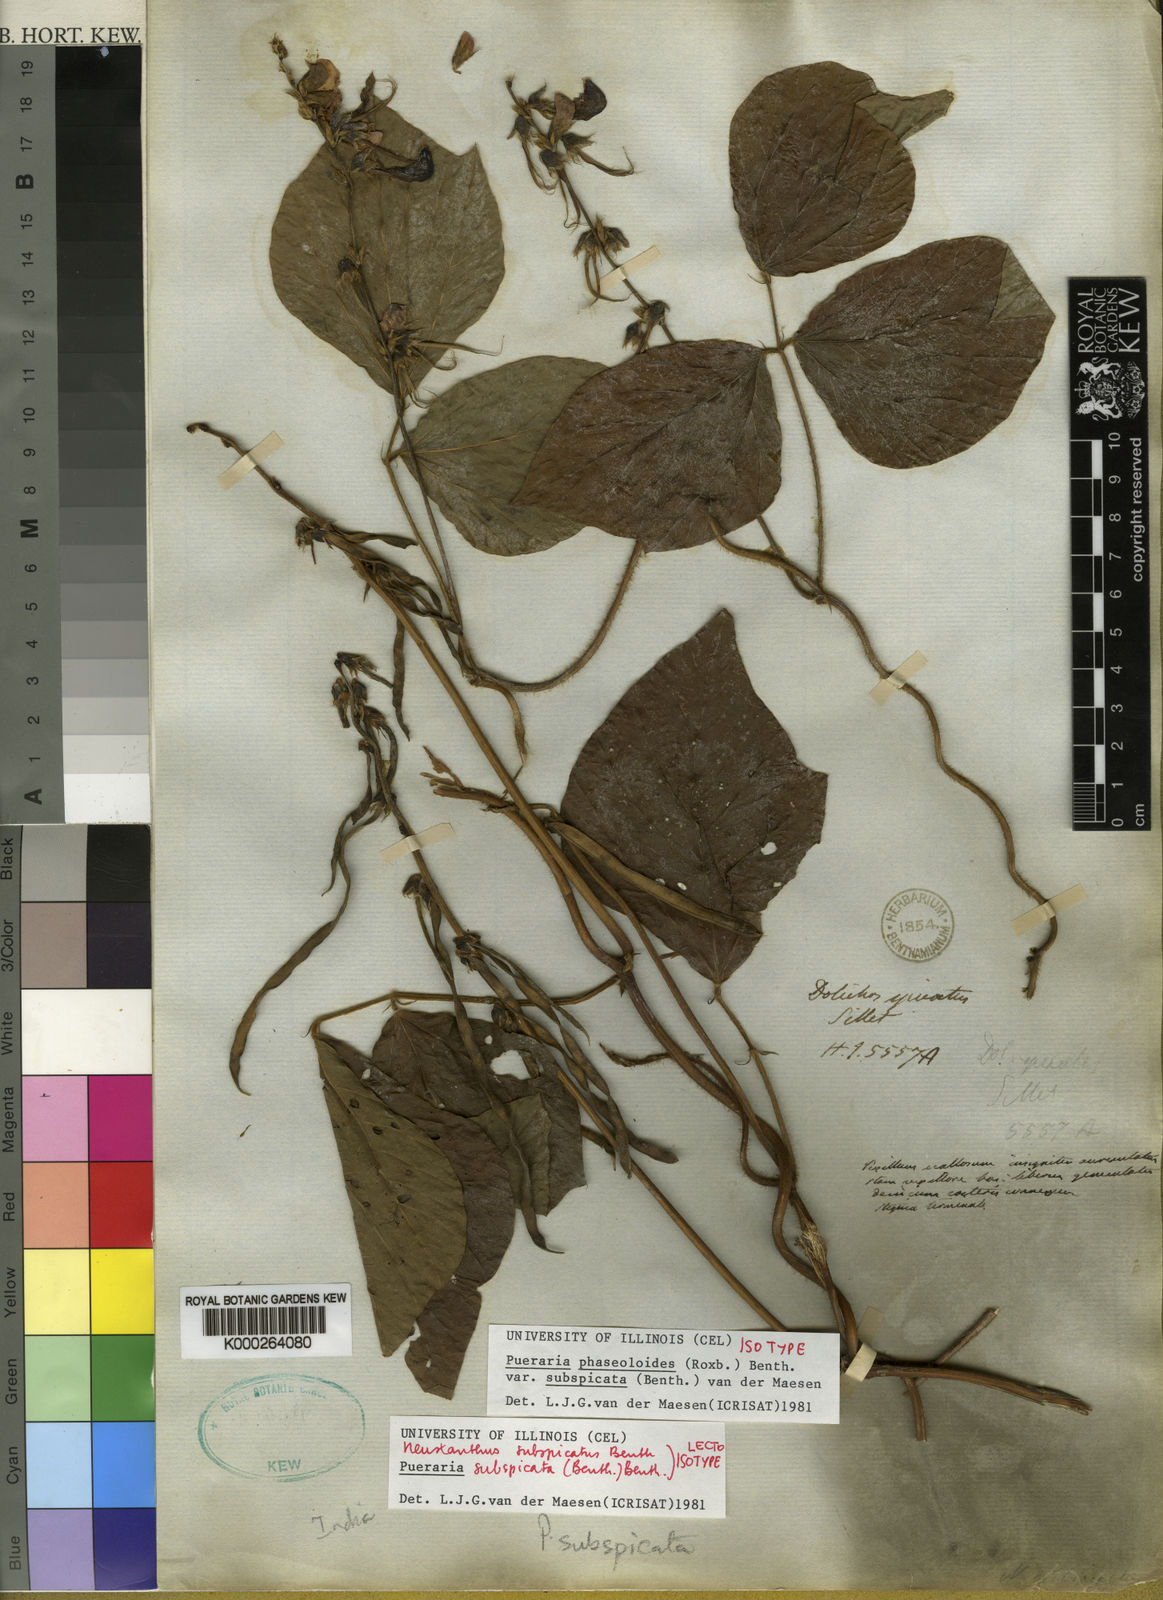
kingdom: Plantae
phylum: Tracheophyta
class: Magnoliopsida
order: Fabales
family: Fabaceae
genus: Neustanthus
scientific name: Neustanthus phaseoloides
